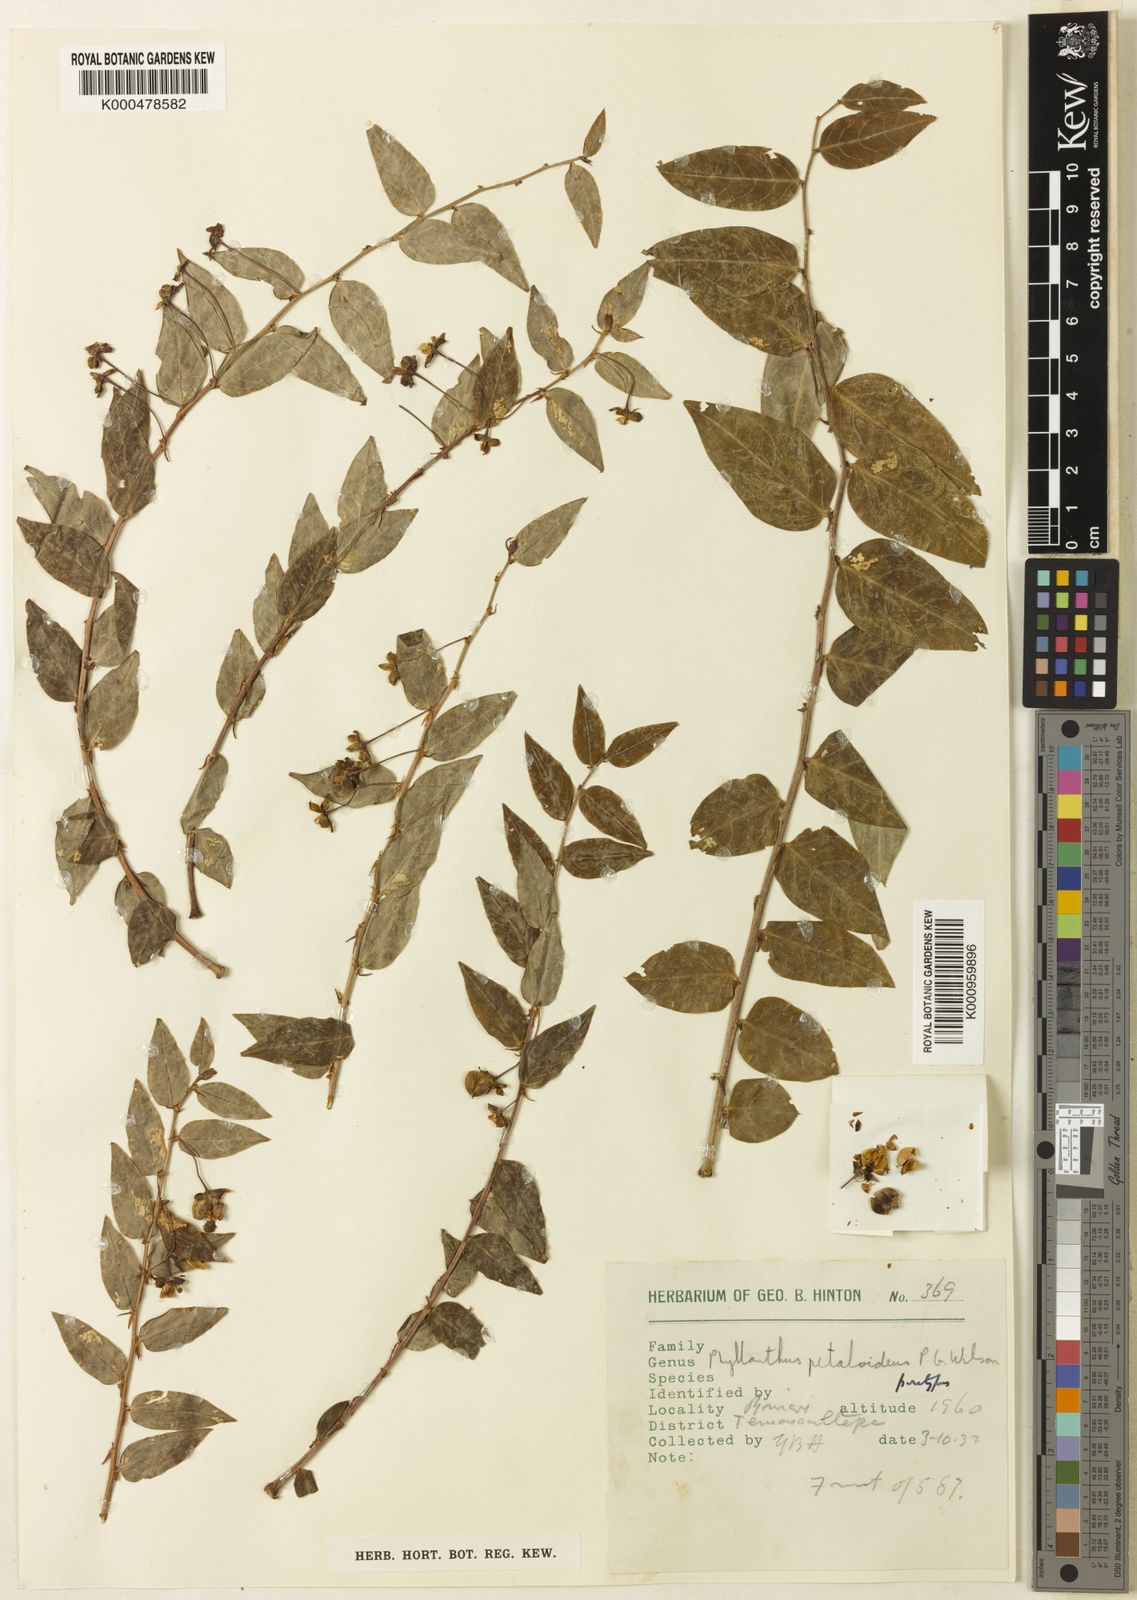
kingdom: Plantae
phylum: Tracheophyta
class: Magnoliopsida
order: Malpighiales
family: Phyllanthaceae
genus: Phyllanthus
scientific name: Phyllanthus petaloideus
